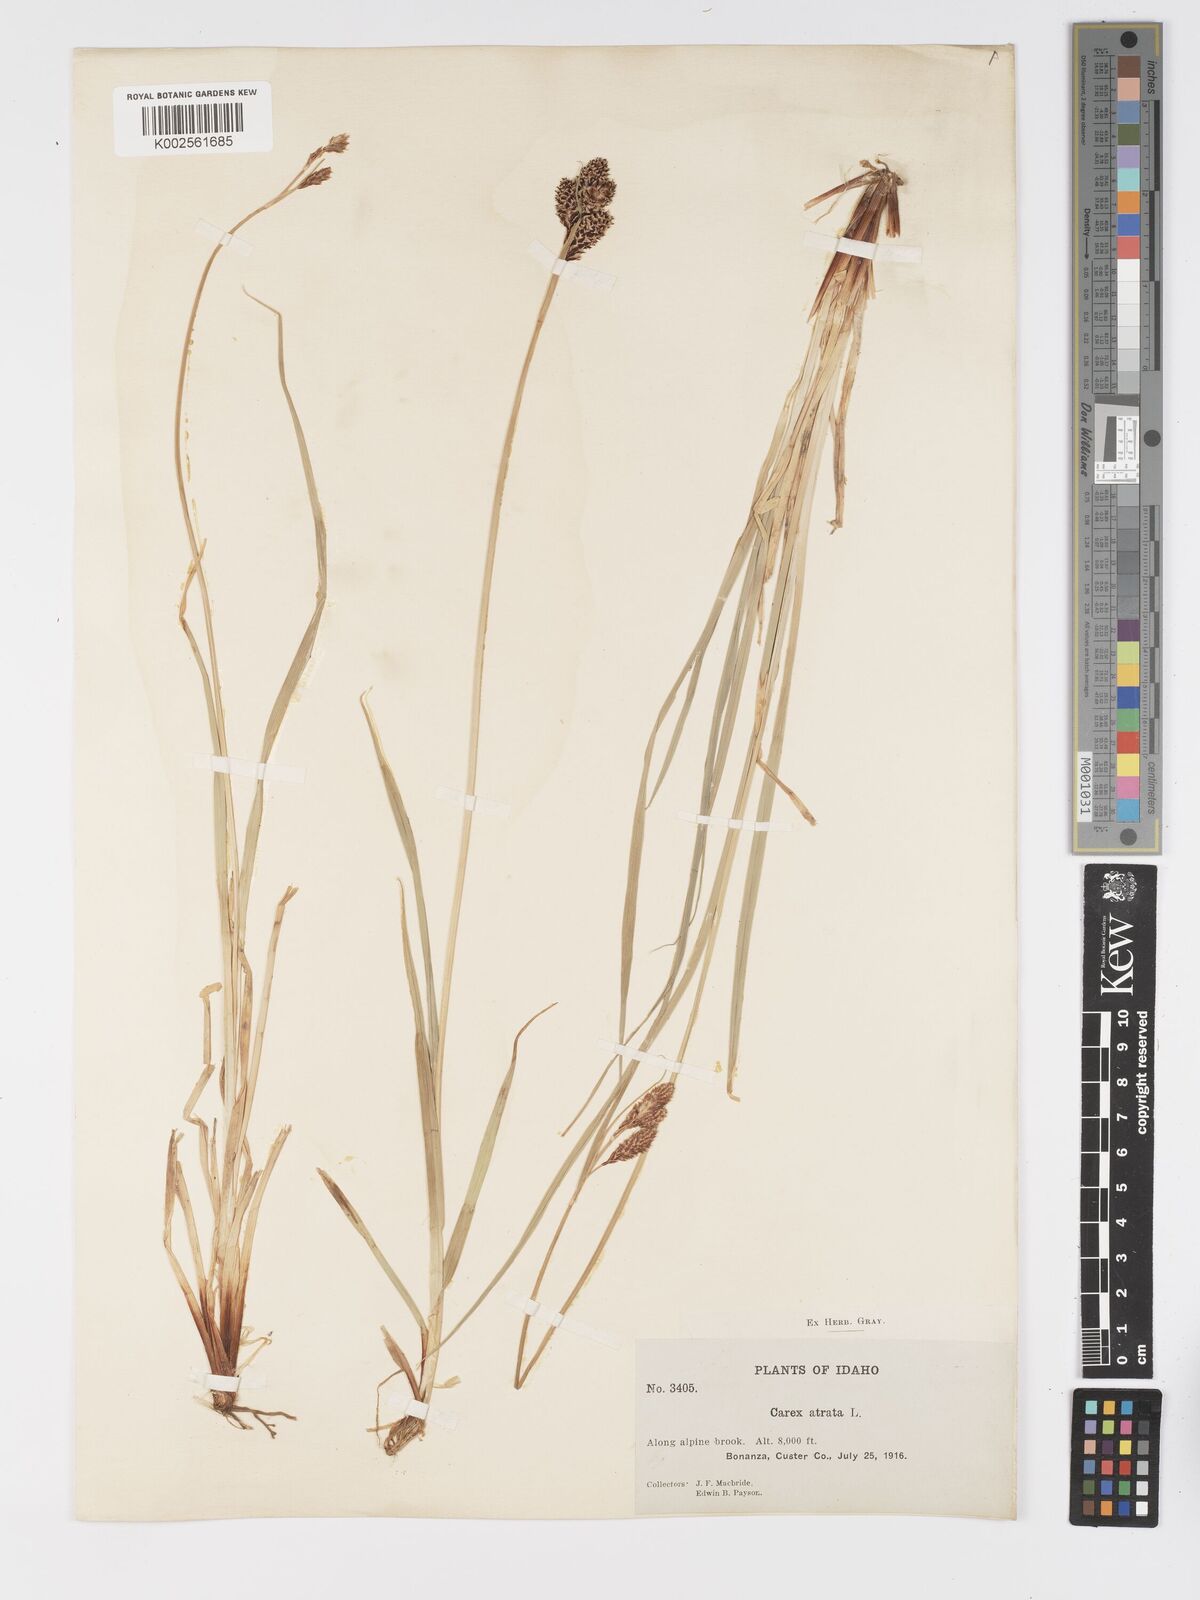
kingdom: Plantae
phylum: Tracheophyta
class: Liliopsida
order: Poales
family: Cyperaceae
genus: Carex
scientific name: Carex chalciolepis
